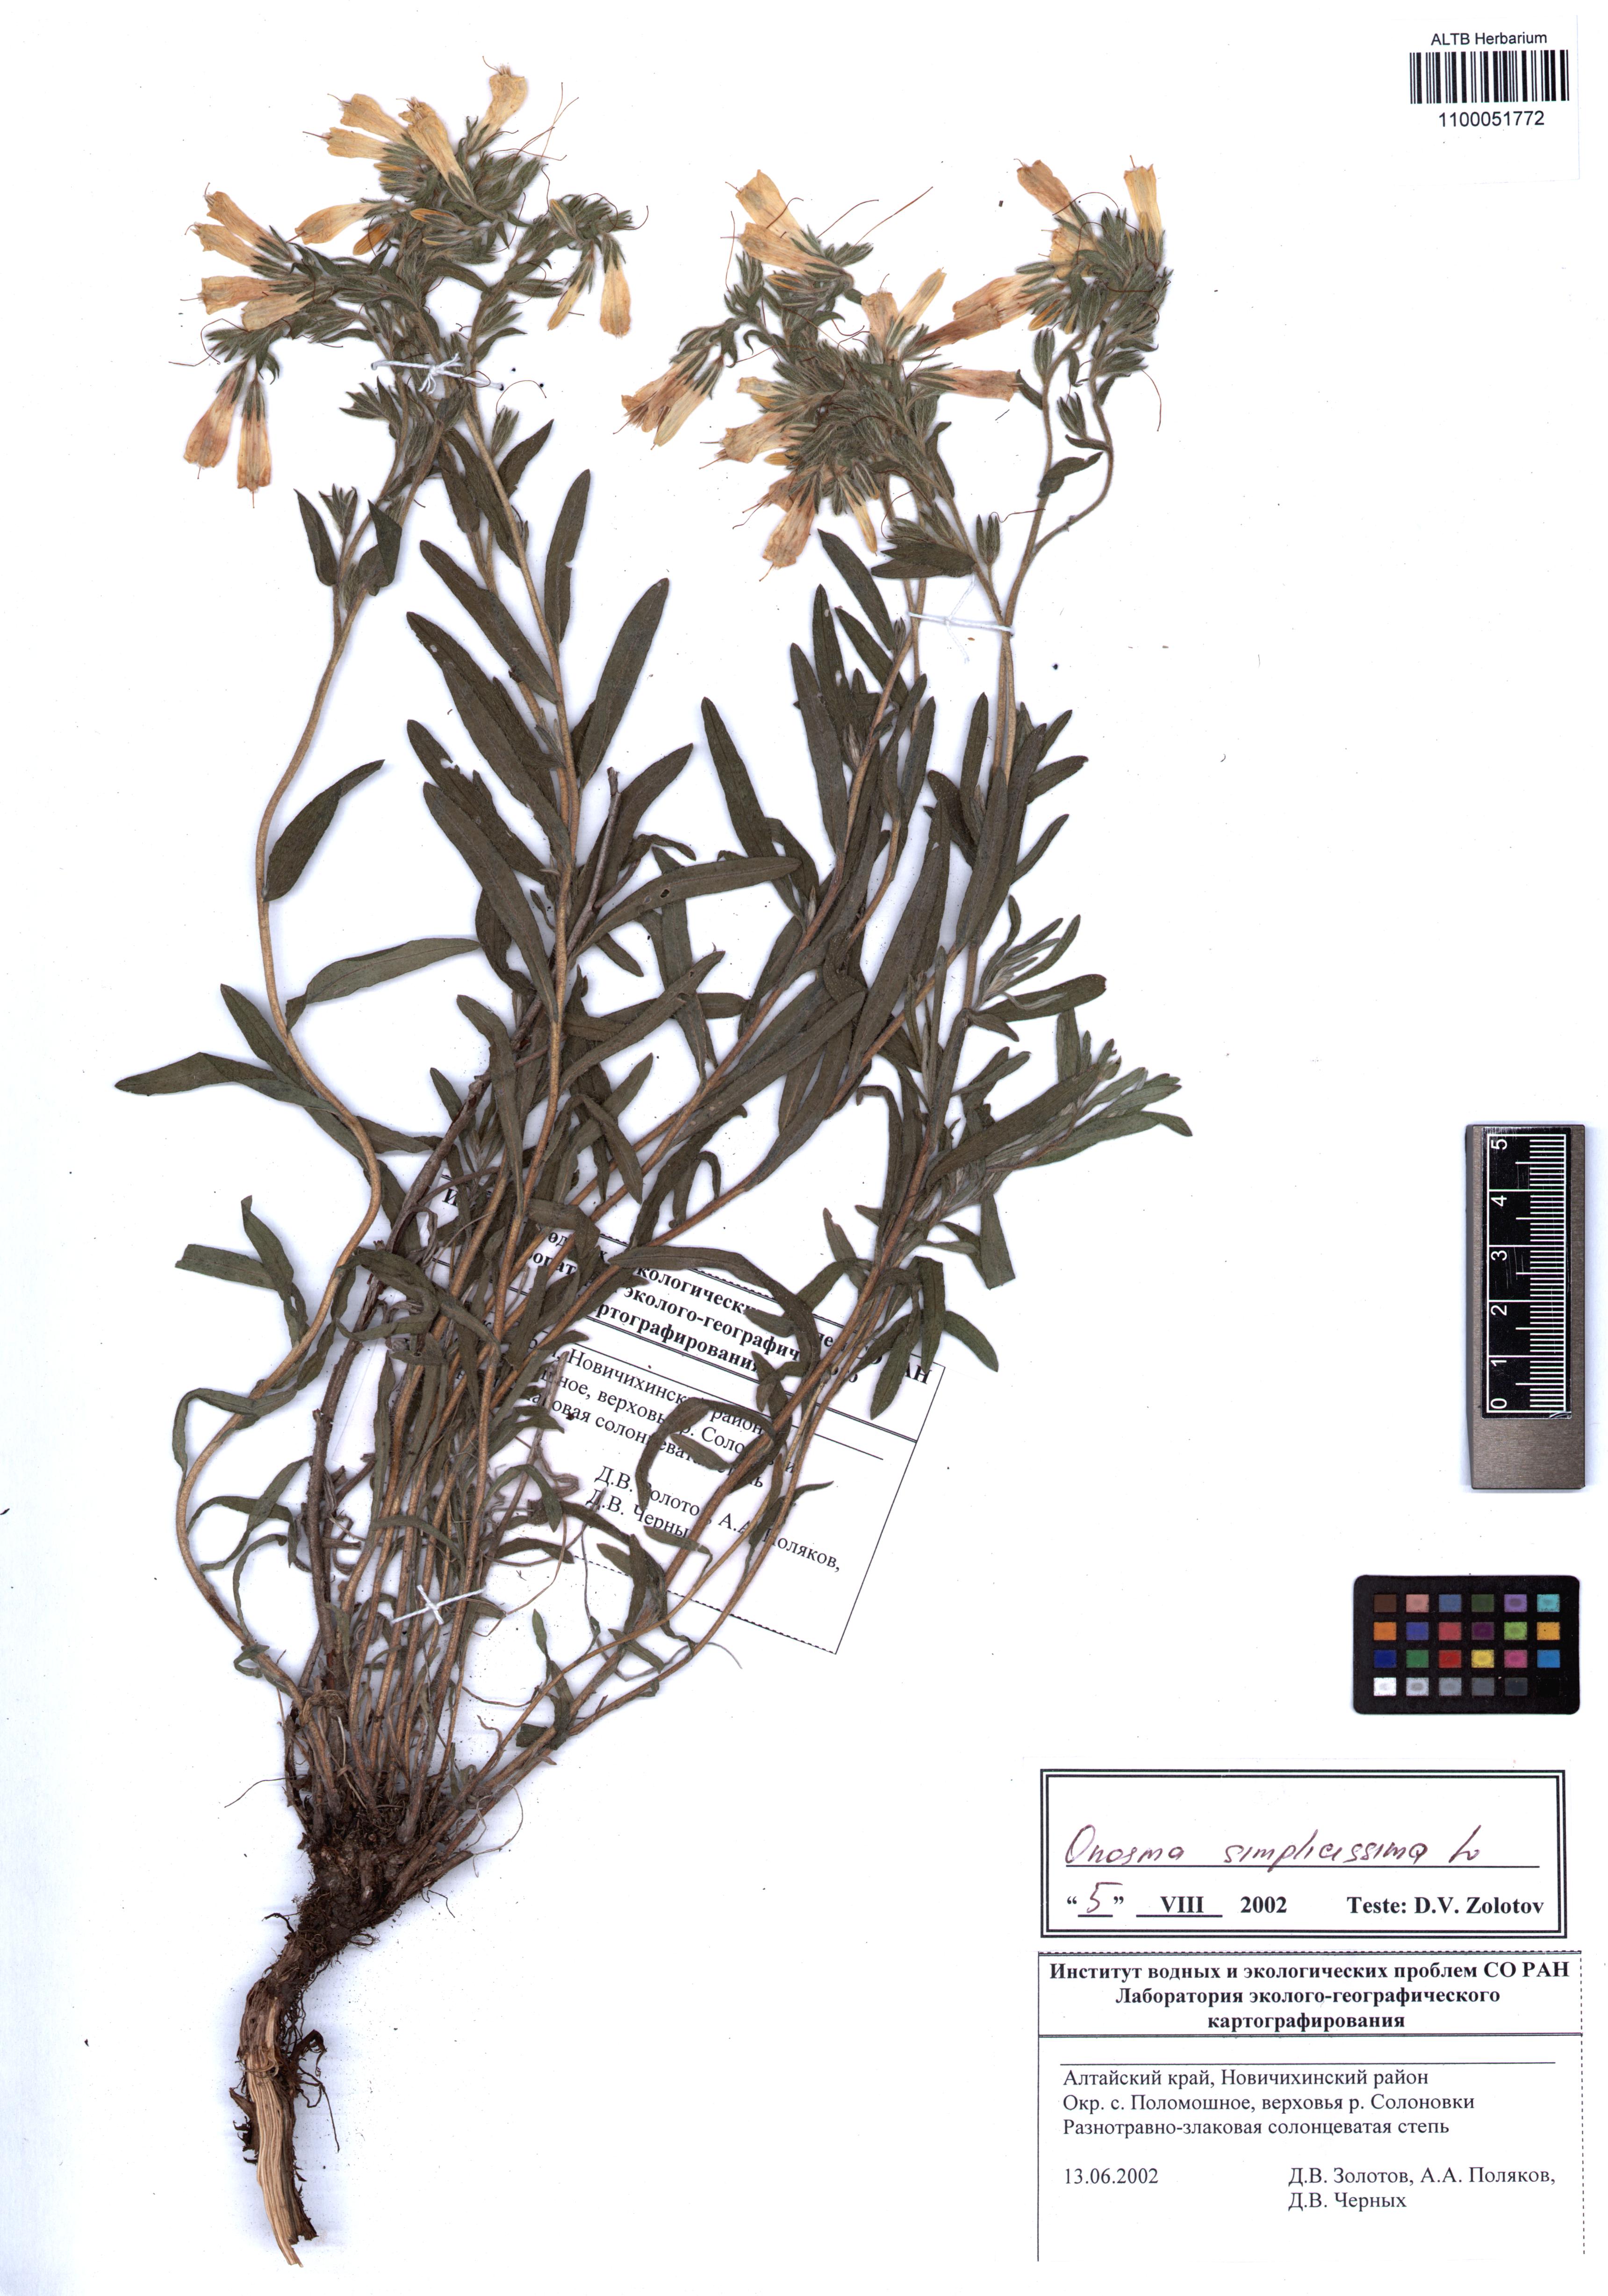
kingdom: Plantae
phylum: Tracheophyta
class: Magnoliopsida
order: Boraginales
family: Boraginaceae
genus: Onosma
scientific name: Onosma simplicissima
